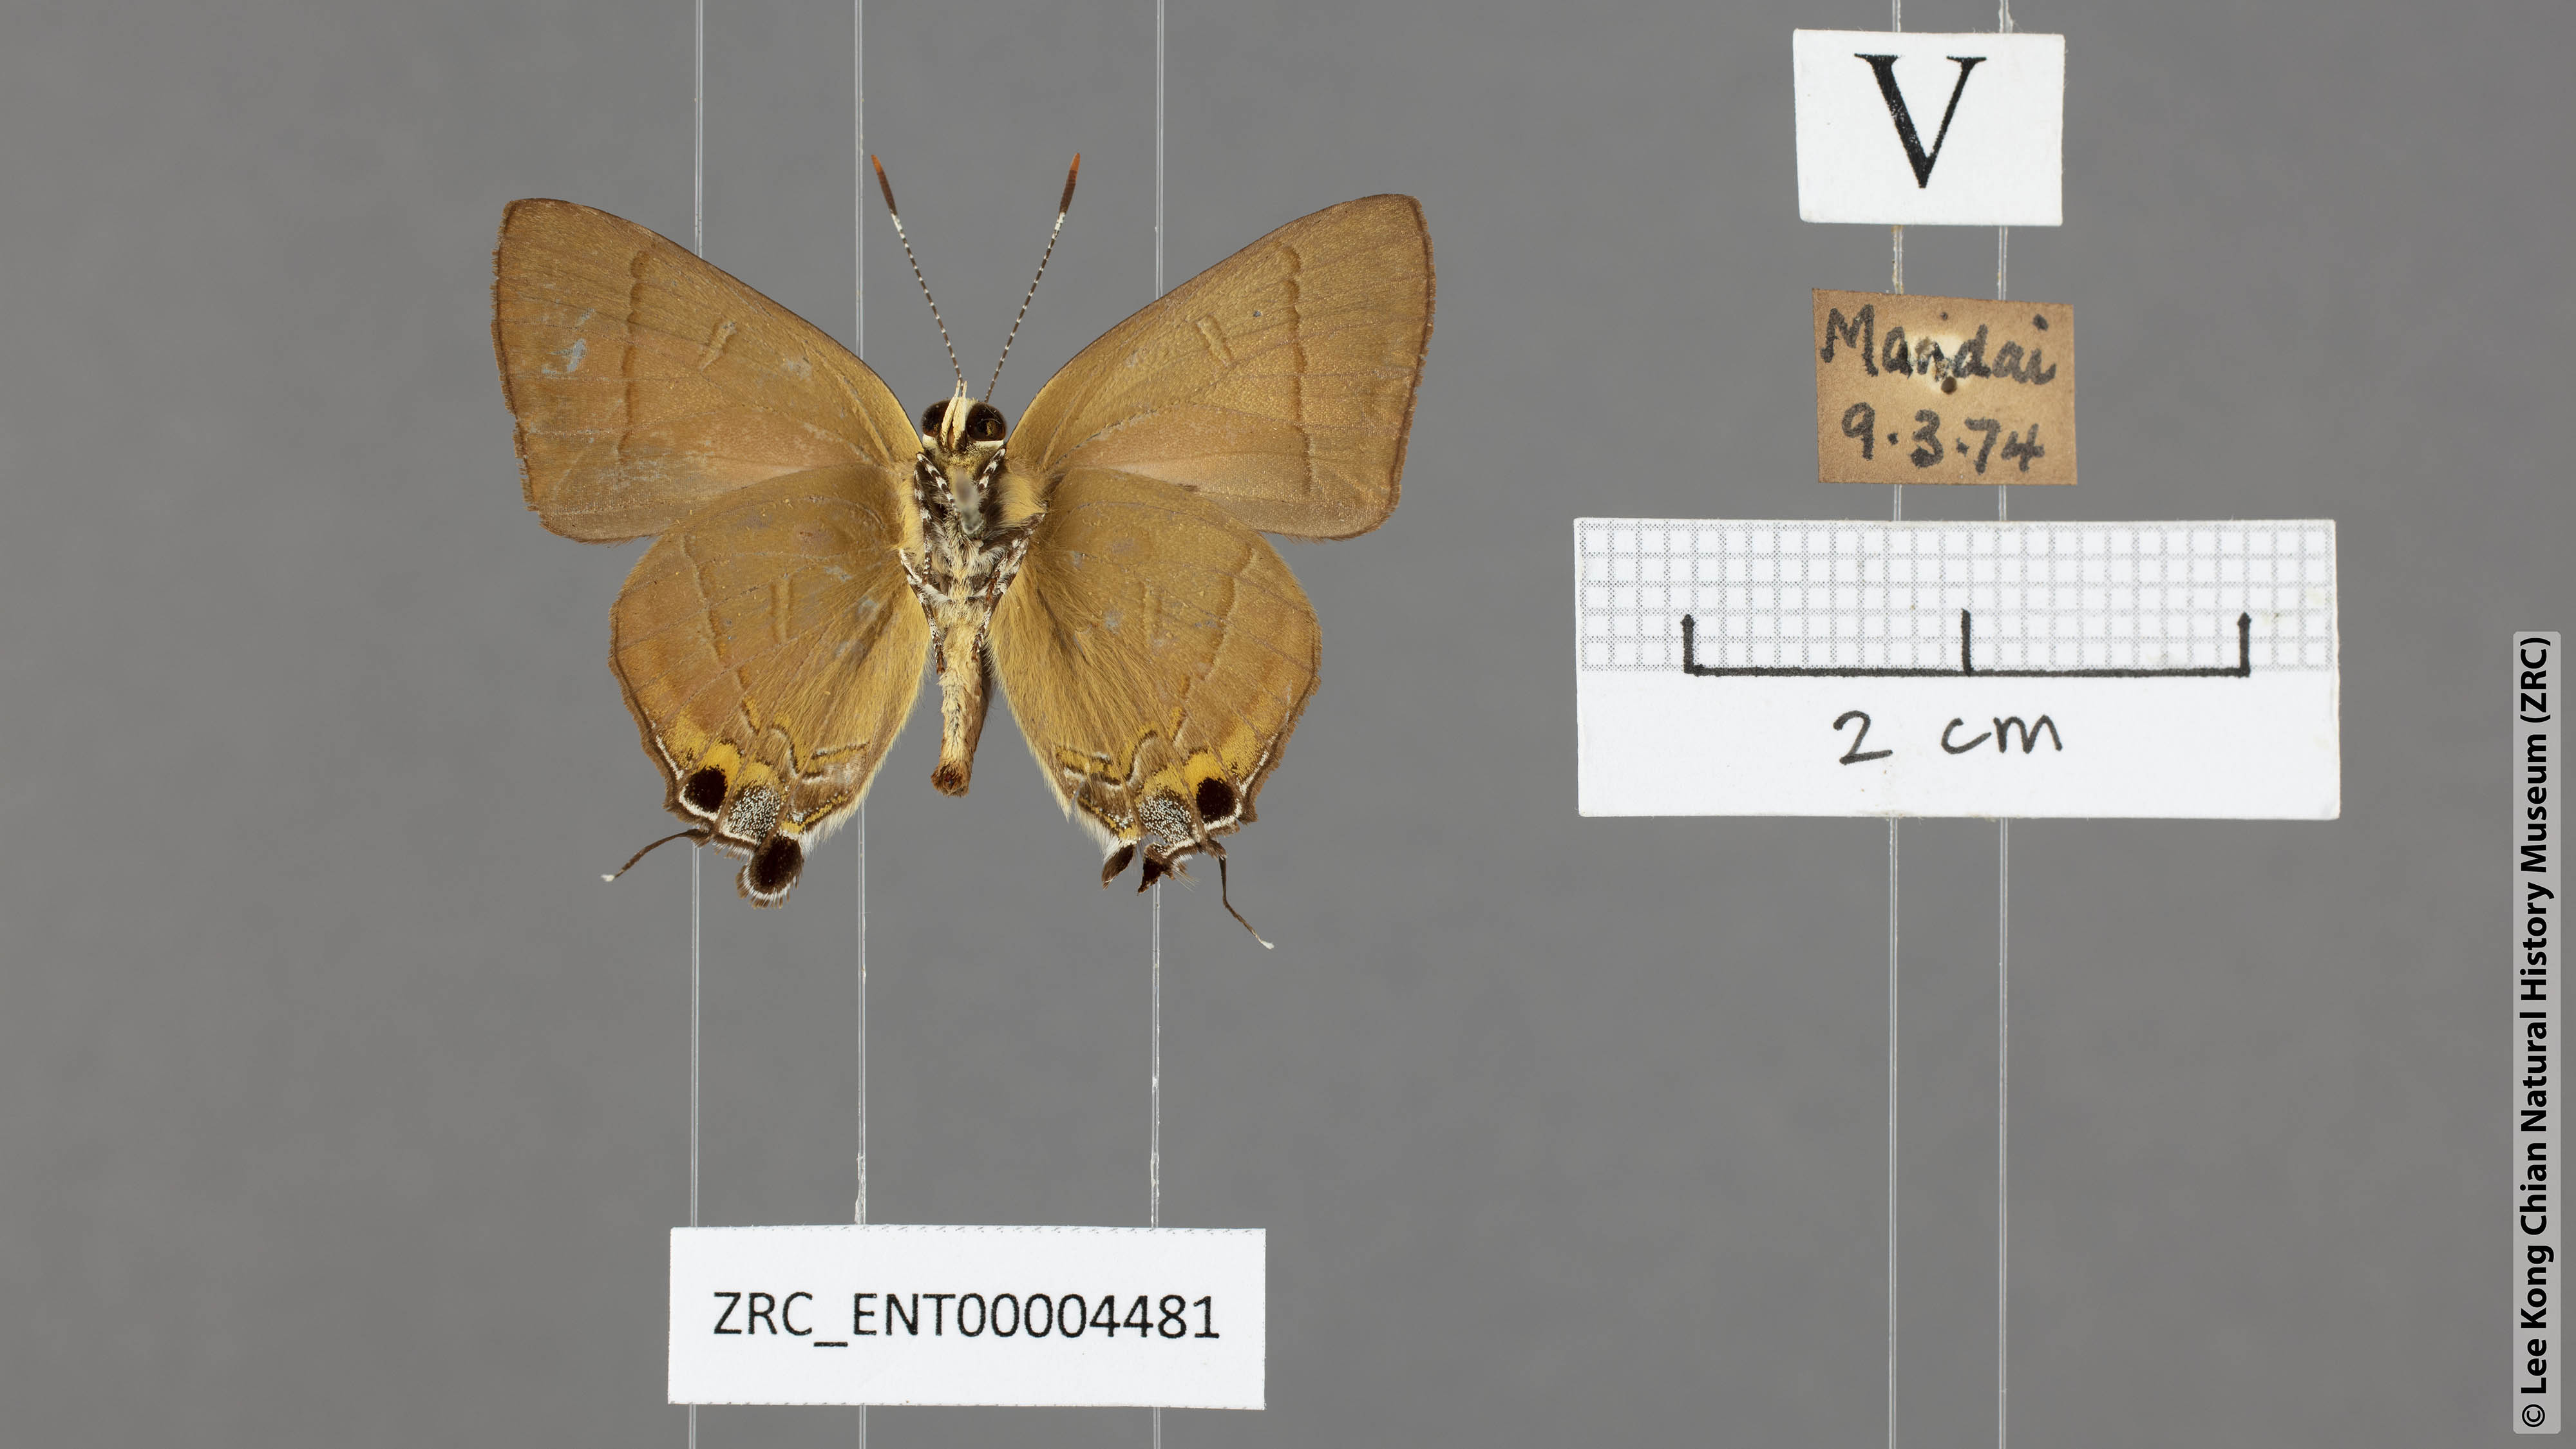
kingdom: Animalia
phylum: Arthropoda
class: Insecta
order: Lepidoptera
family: Lycaenidae
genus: Rapala
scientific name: Rapala dieneces
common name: Scarlet flash
